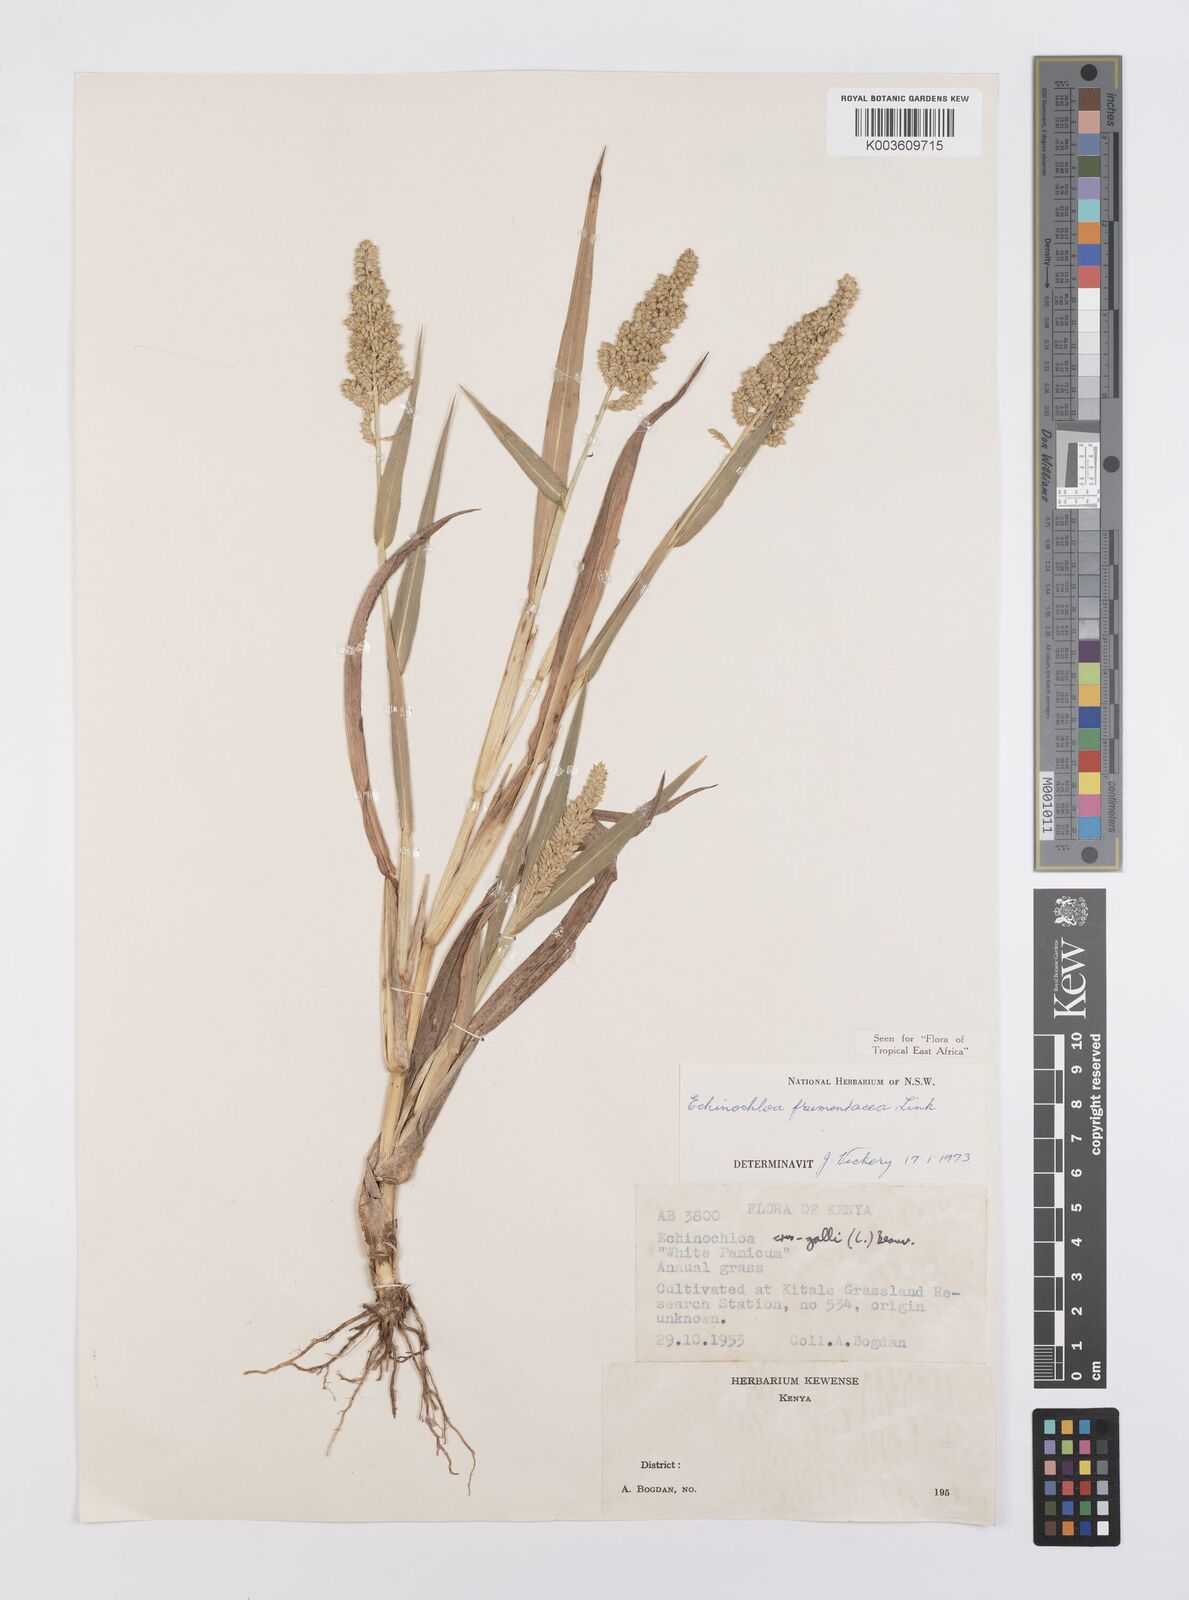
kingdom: Plantae
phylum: Tracheophyta
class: Liliopsida
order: Poales
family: Poaceae
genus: Echinochloa
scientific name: Echinochloa frumentacea
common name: Billion-dollar grass
